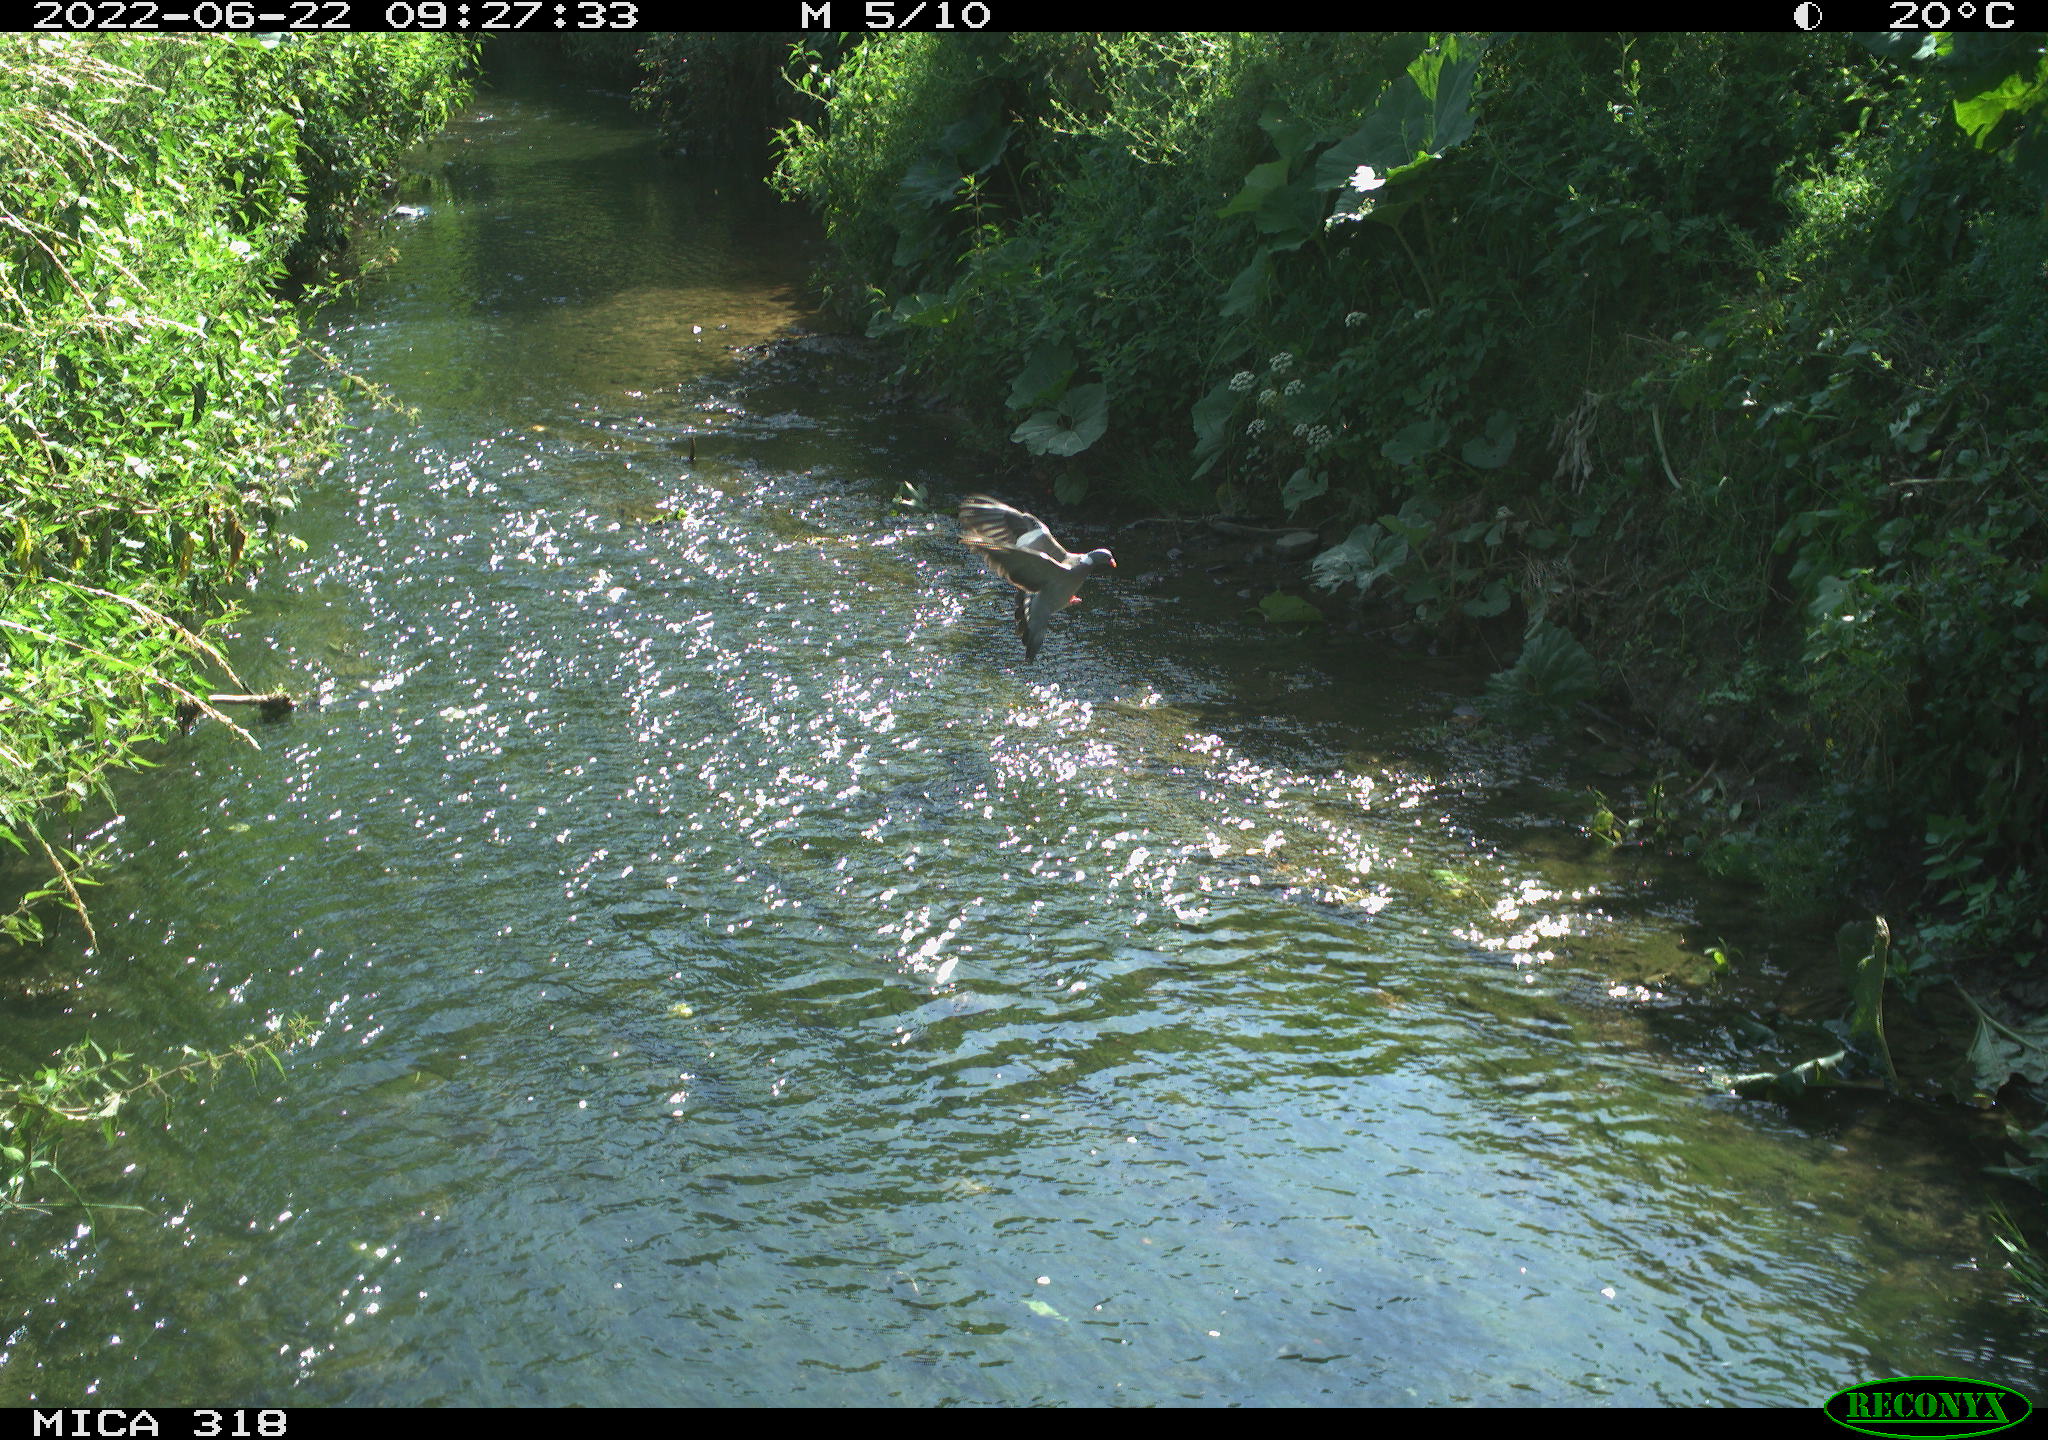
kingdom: Animalia
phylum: Chordata
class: Aves
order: Columbiformes
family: Columbidae
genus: Columba
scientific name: Columba palumbus
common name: Common wood pigeon
